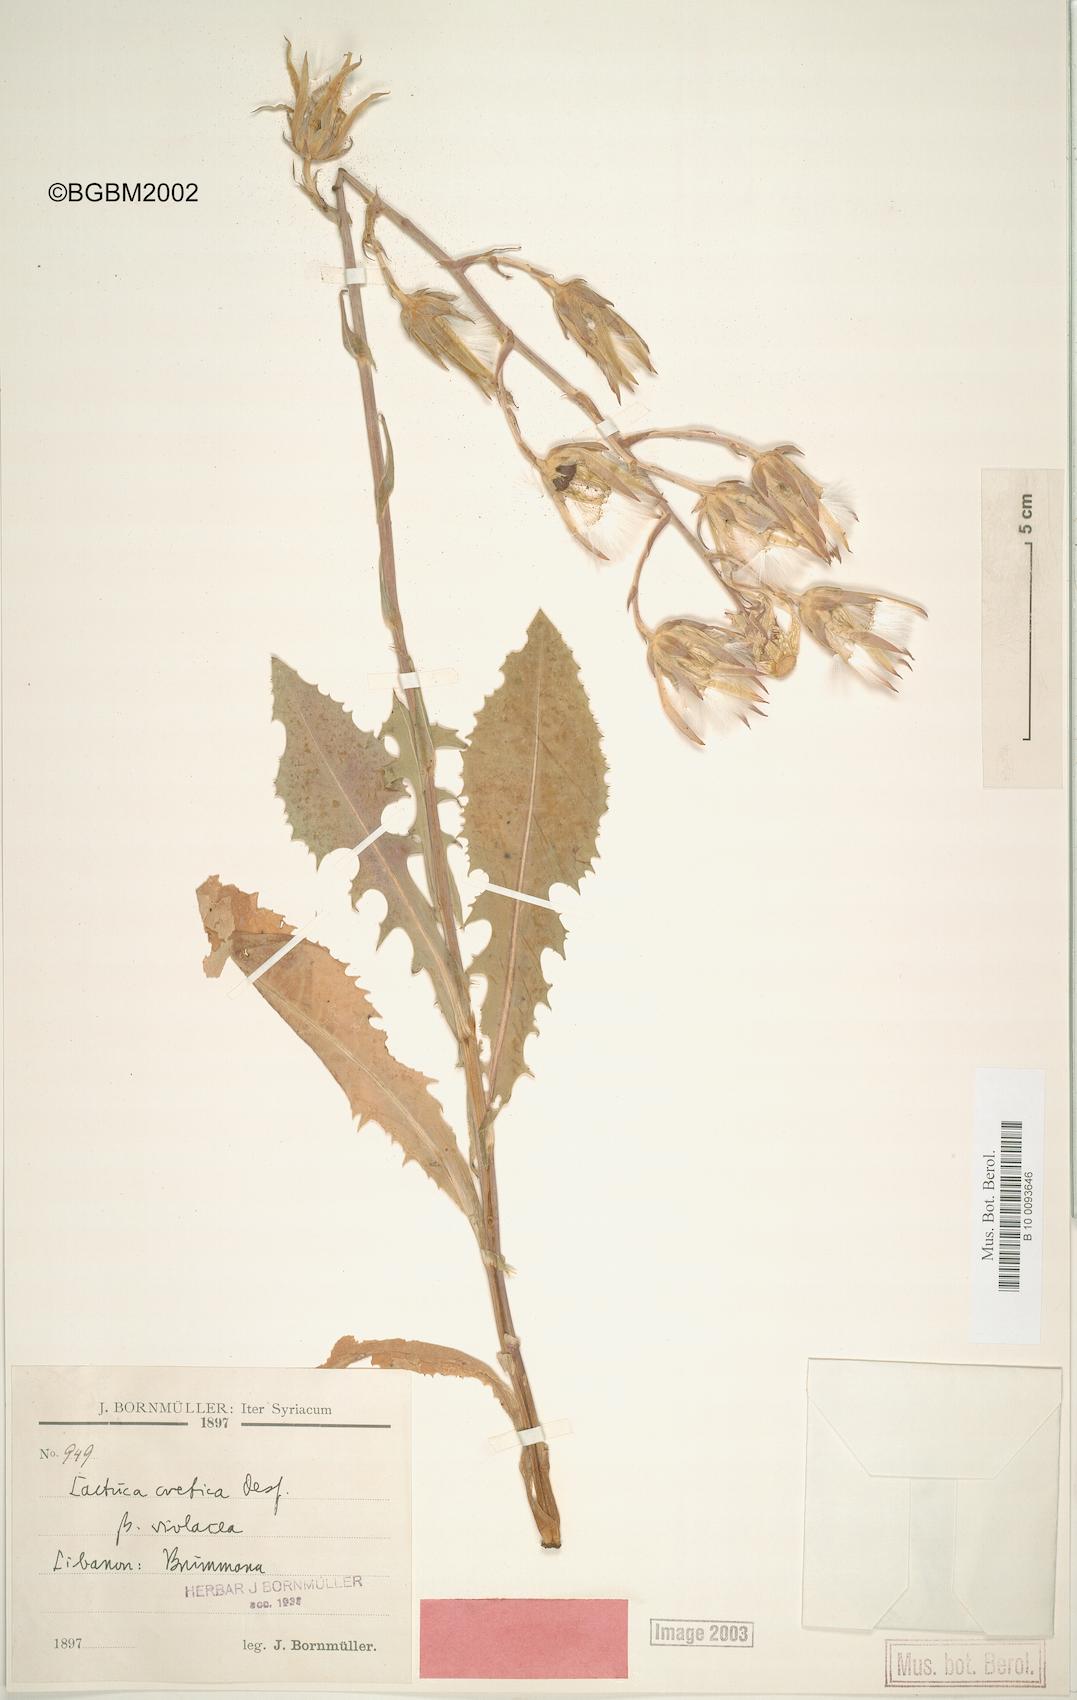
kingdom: Plantae
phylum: Tracheophyta
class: Magnoliopsida
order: Asterales
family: Asteraceae
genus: Lactuca
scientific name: Lactuca tuberosa
